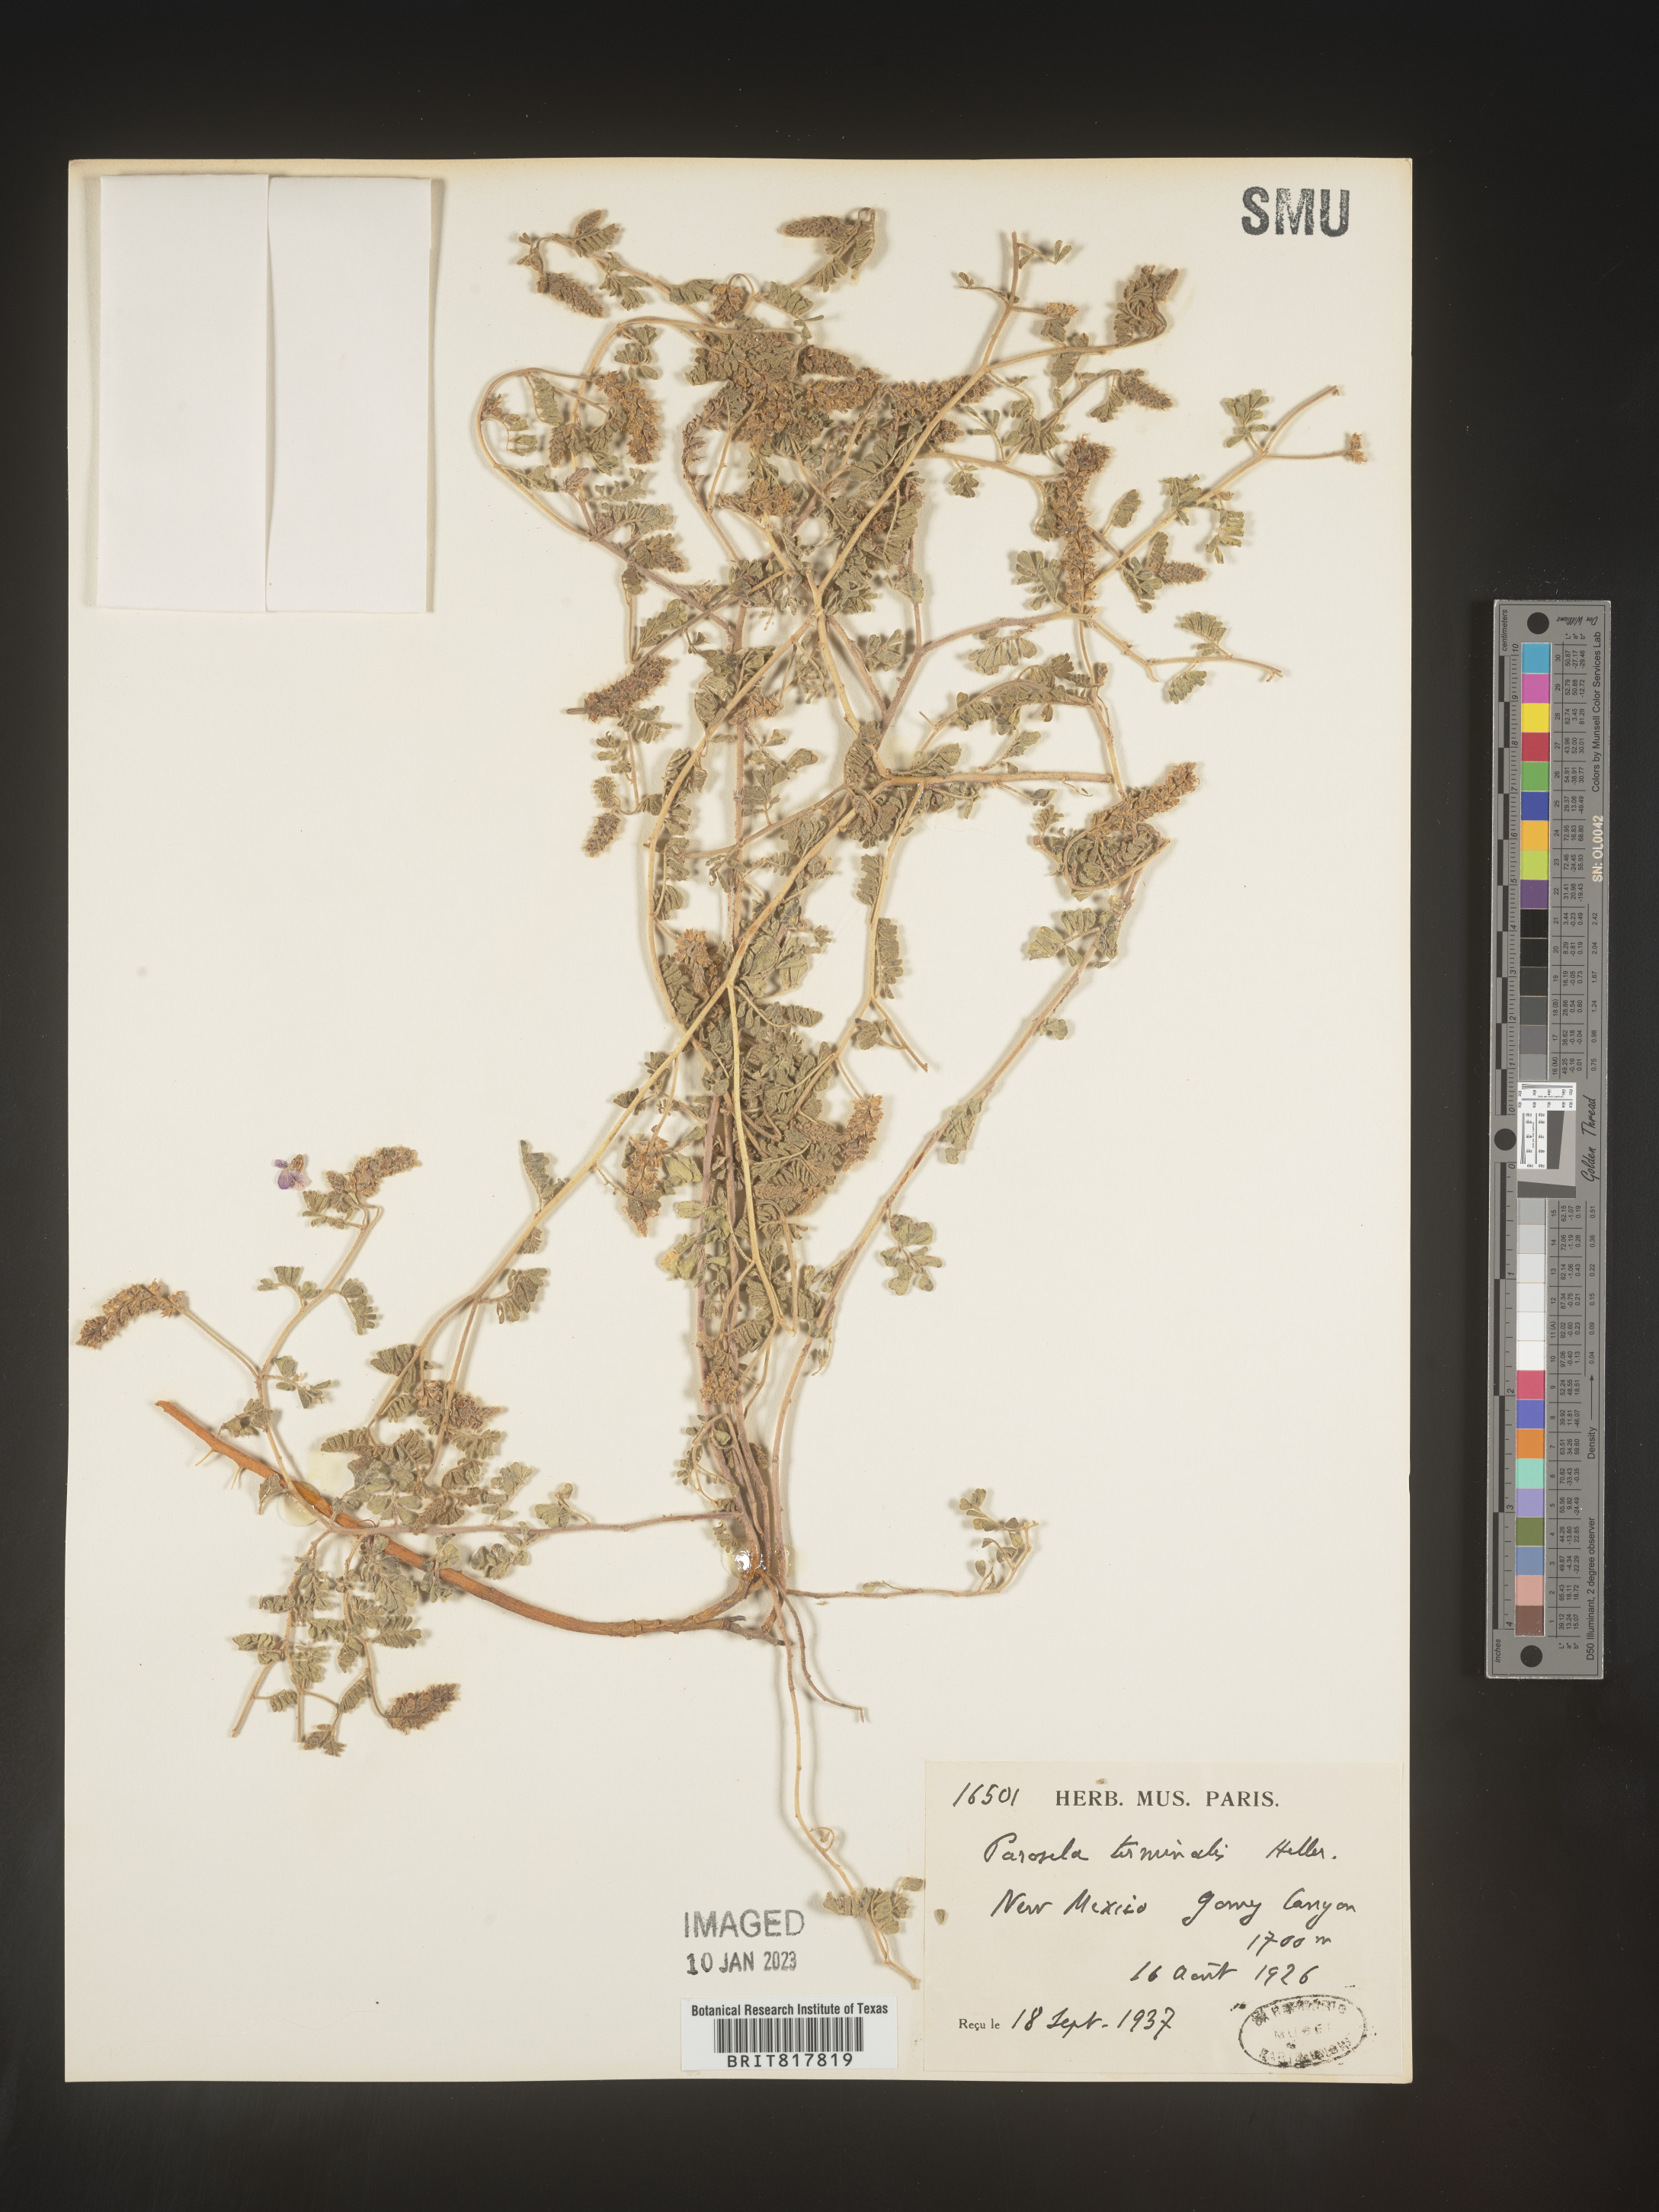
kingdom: Plantae
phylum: Tracheophyta
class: Magnoliopsida
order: Fabales
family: Fabaceae
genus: Dalea
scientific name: Dalea
